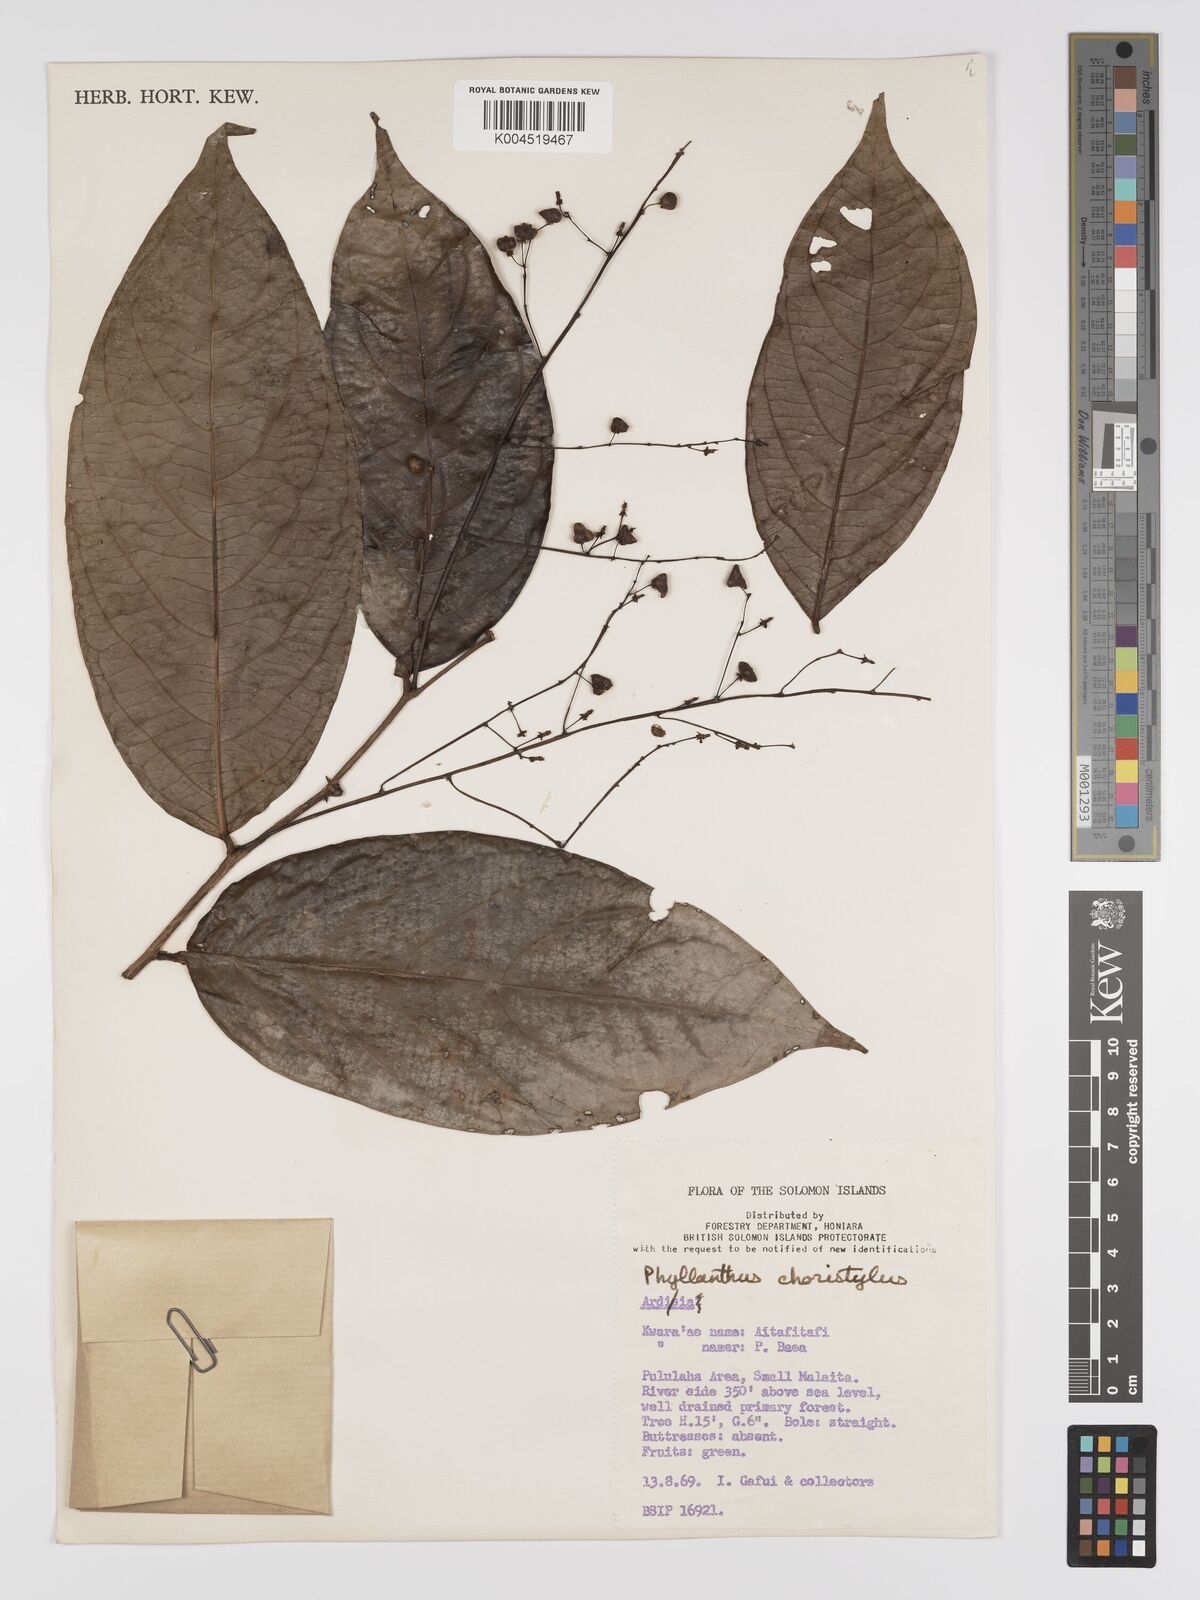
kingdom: Plantae
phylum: Tracheophyta
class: Magnoliopsida
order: Malpighiales
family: Phyllanthaceae
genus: Phyllanthus
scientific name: Phyllanthus clamboides
